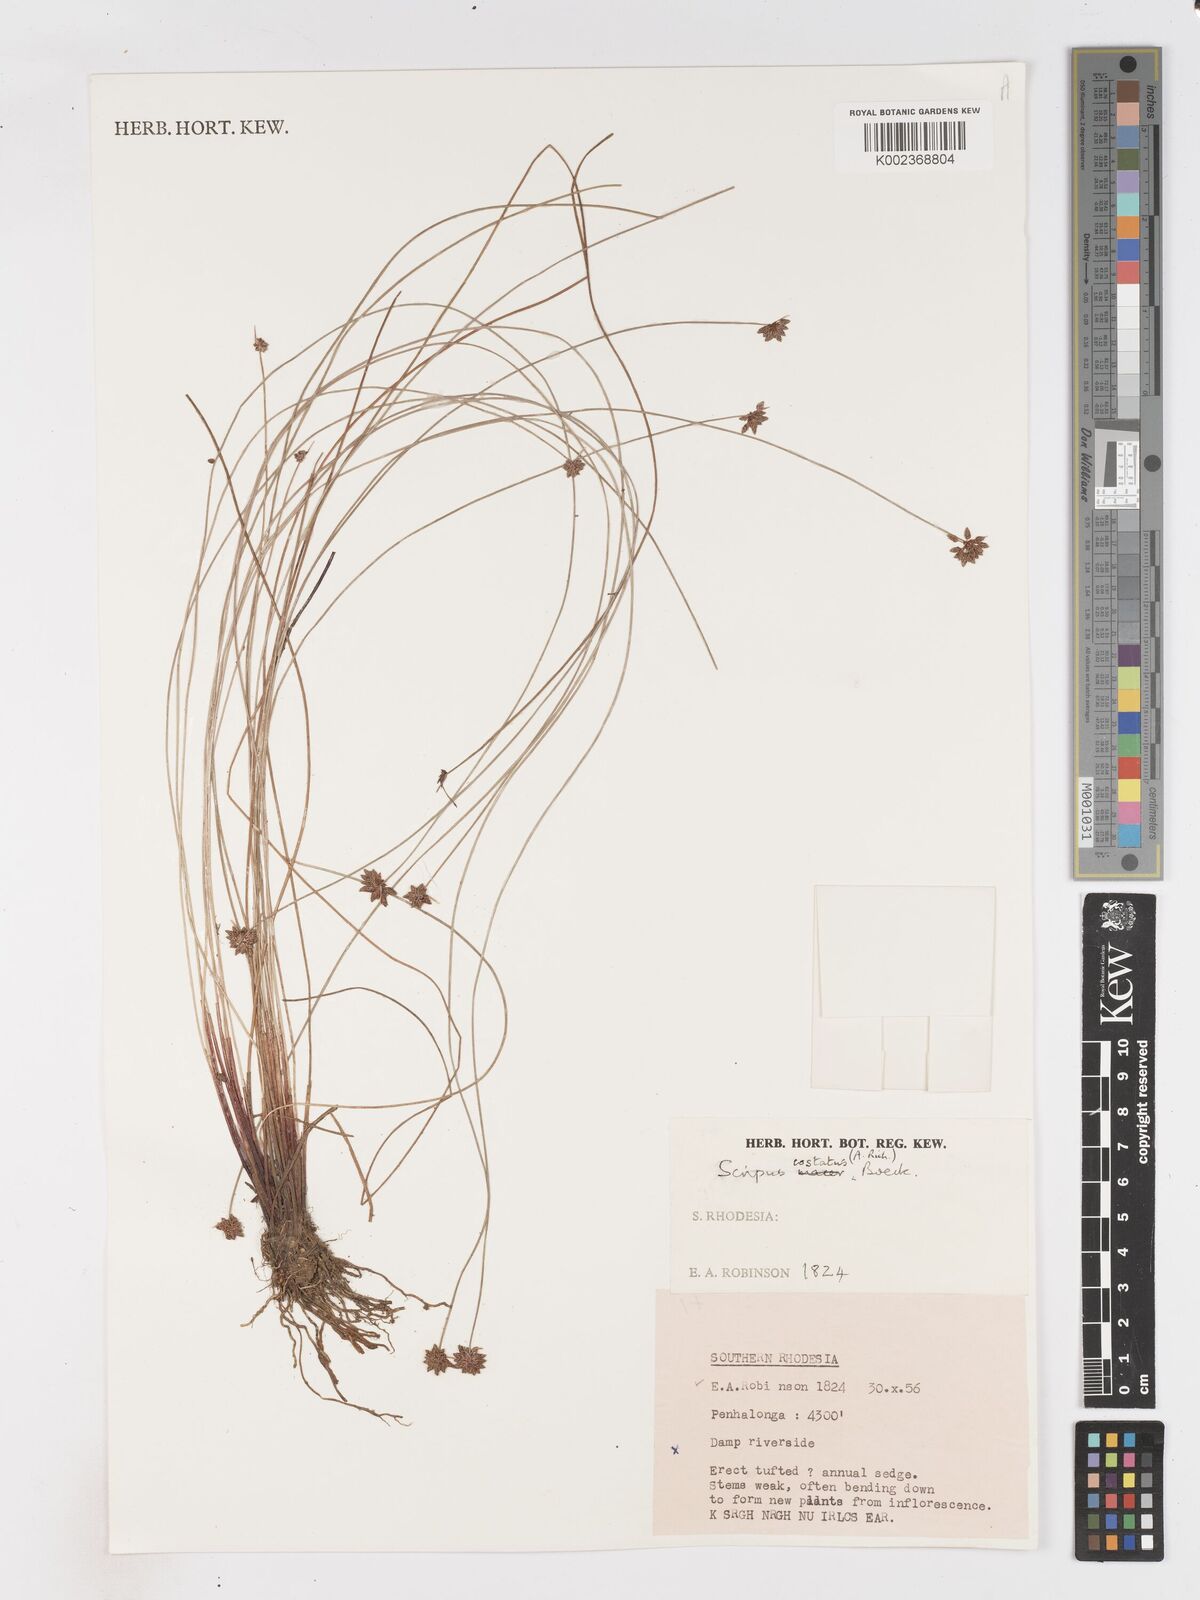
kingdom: Plantae
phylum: Tracheophyta
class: Liliopsida
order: Poales
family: Cyperaceae
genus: Isolepis
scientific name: Isolepis costata
